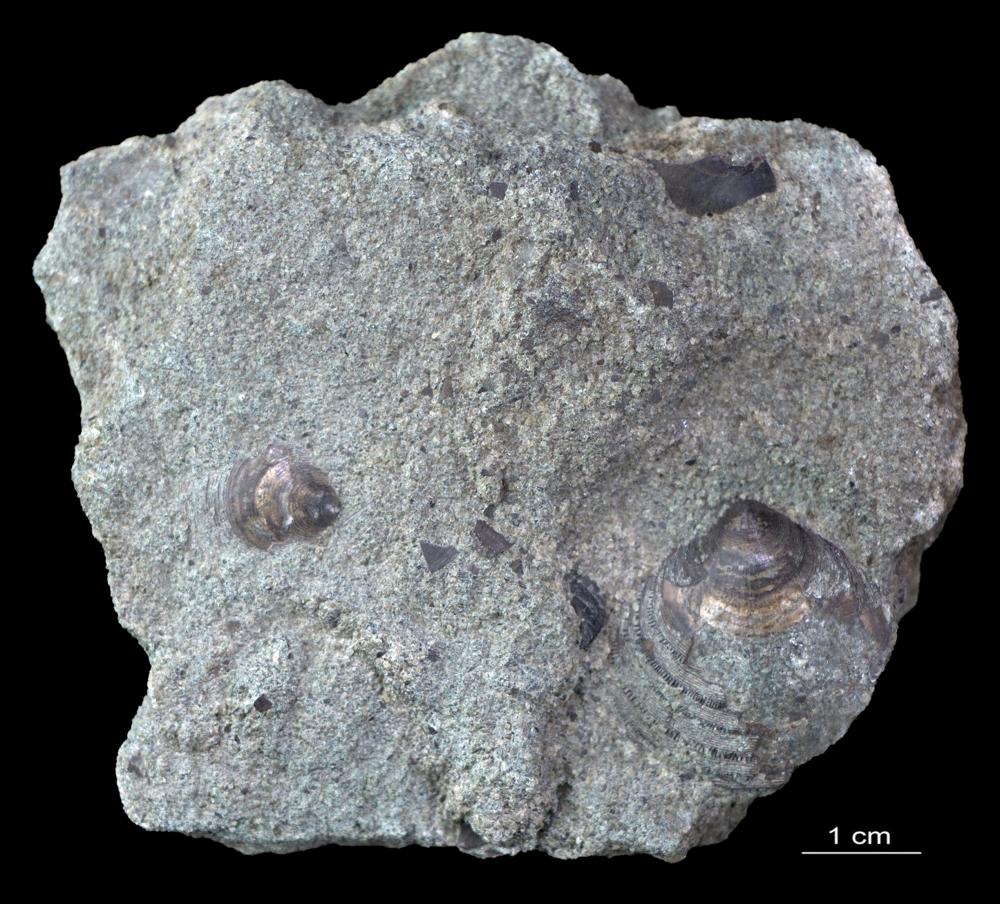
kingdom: Animalia
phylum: Brachiopoda
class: Lingulata
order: Lingulida
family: Zhanatellidae
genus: Thysanotos
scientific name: Thysanotos
